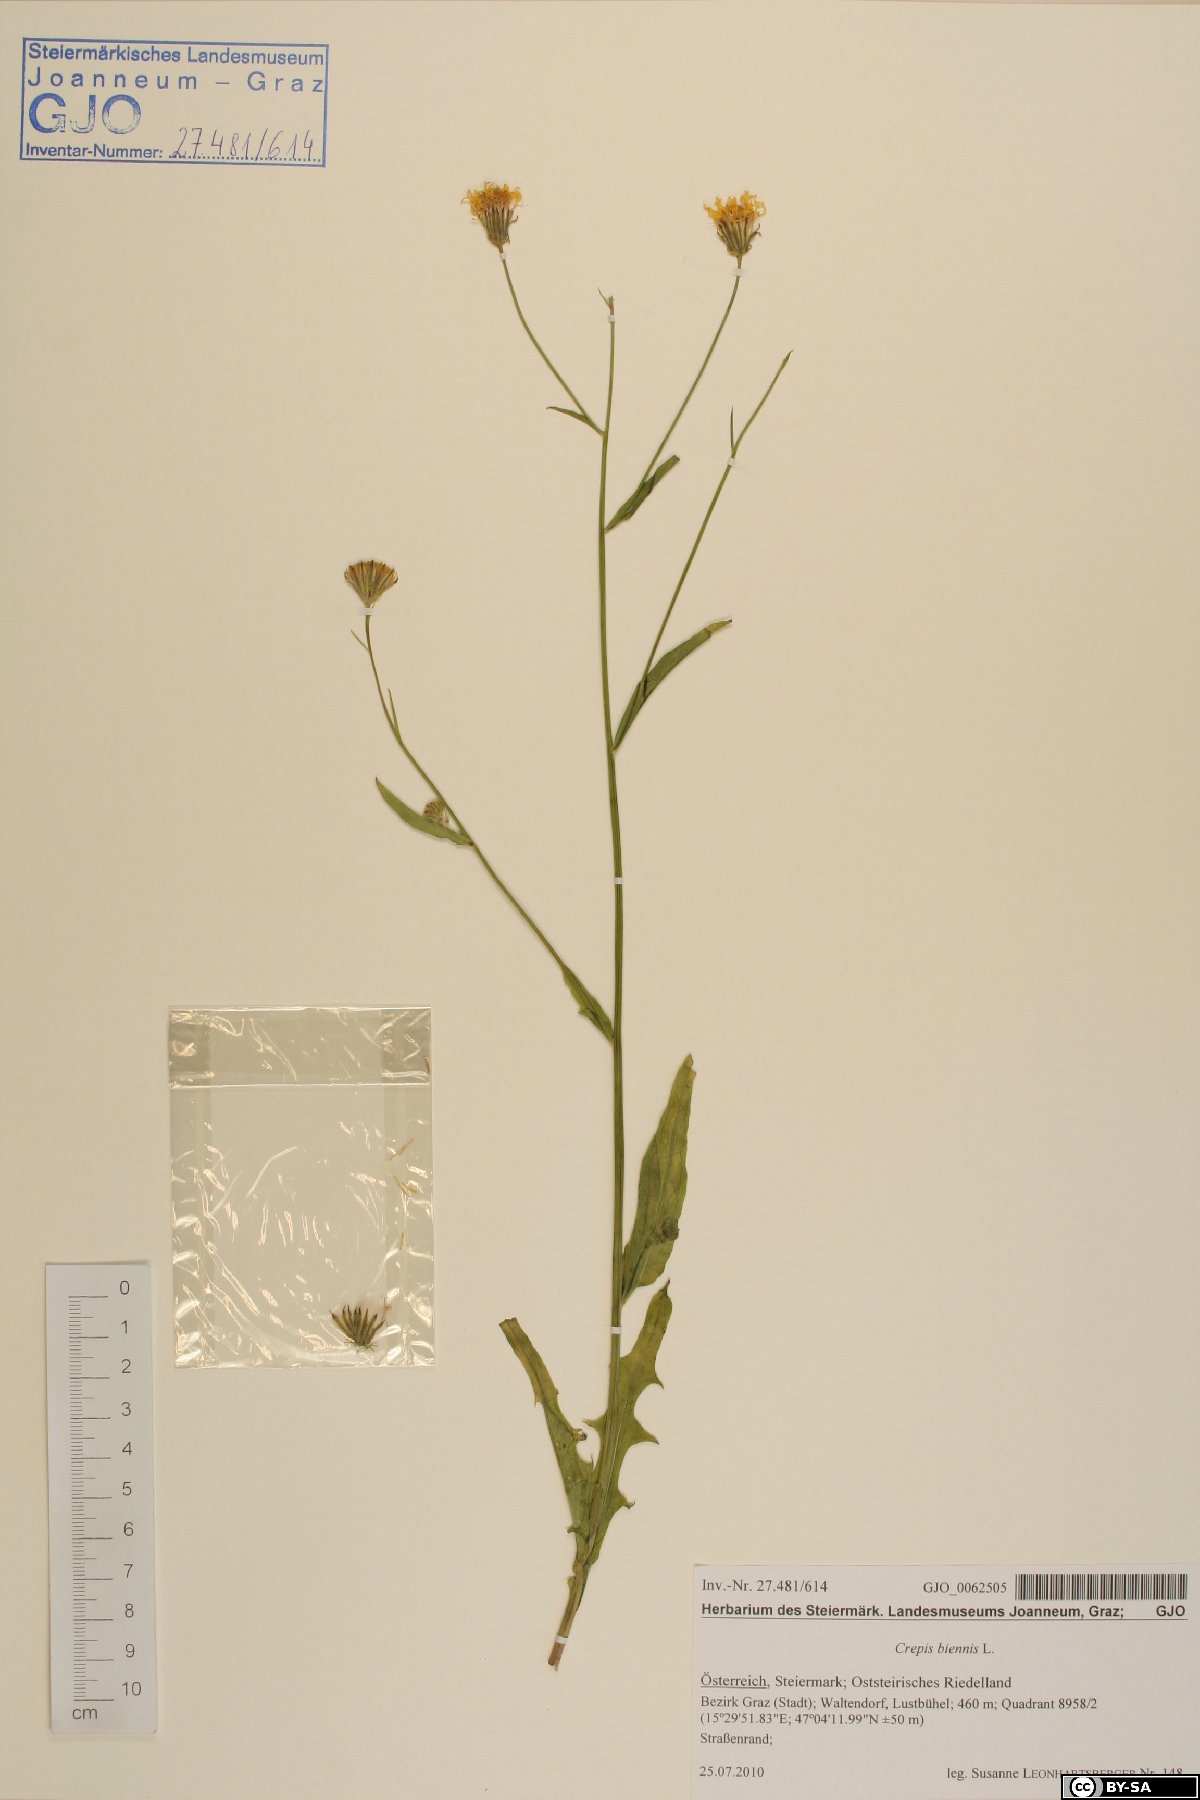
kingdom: Plantae
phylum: Tracheophyta
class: Magnoliopsida
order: Asterales
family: Asteraceae
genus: Crepis
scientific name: Crepis biennis
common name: Rough hawk's-beard
